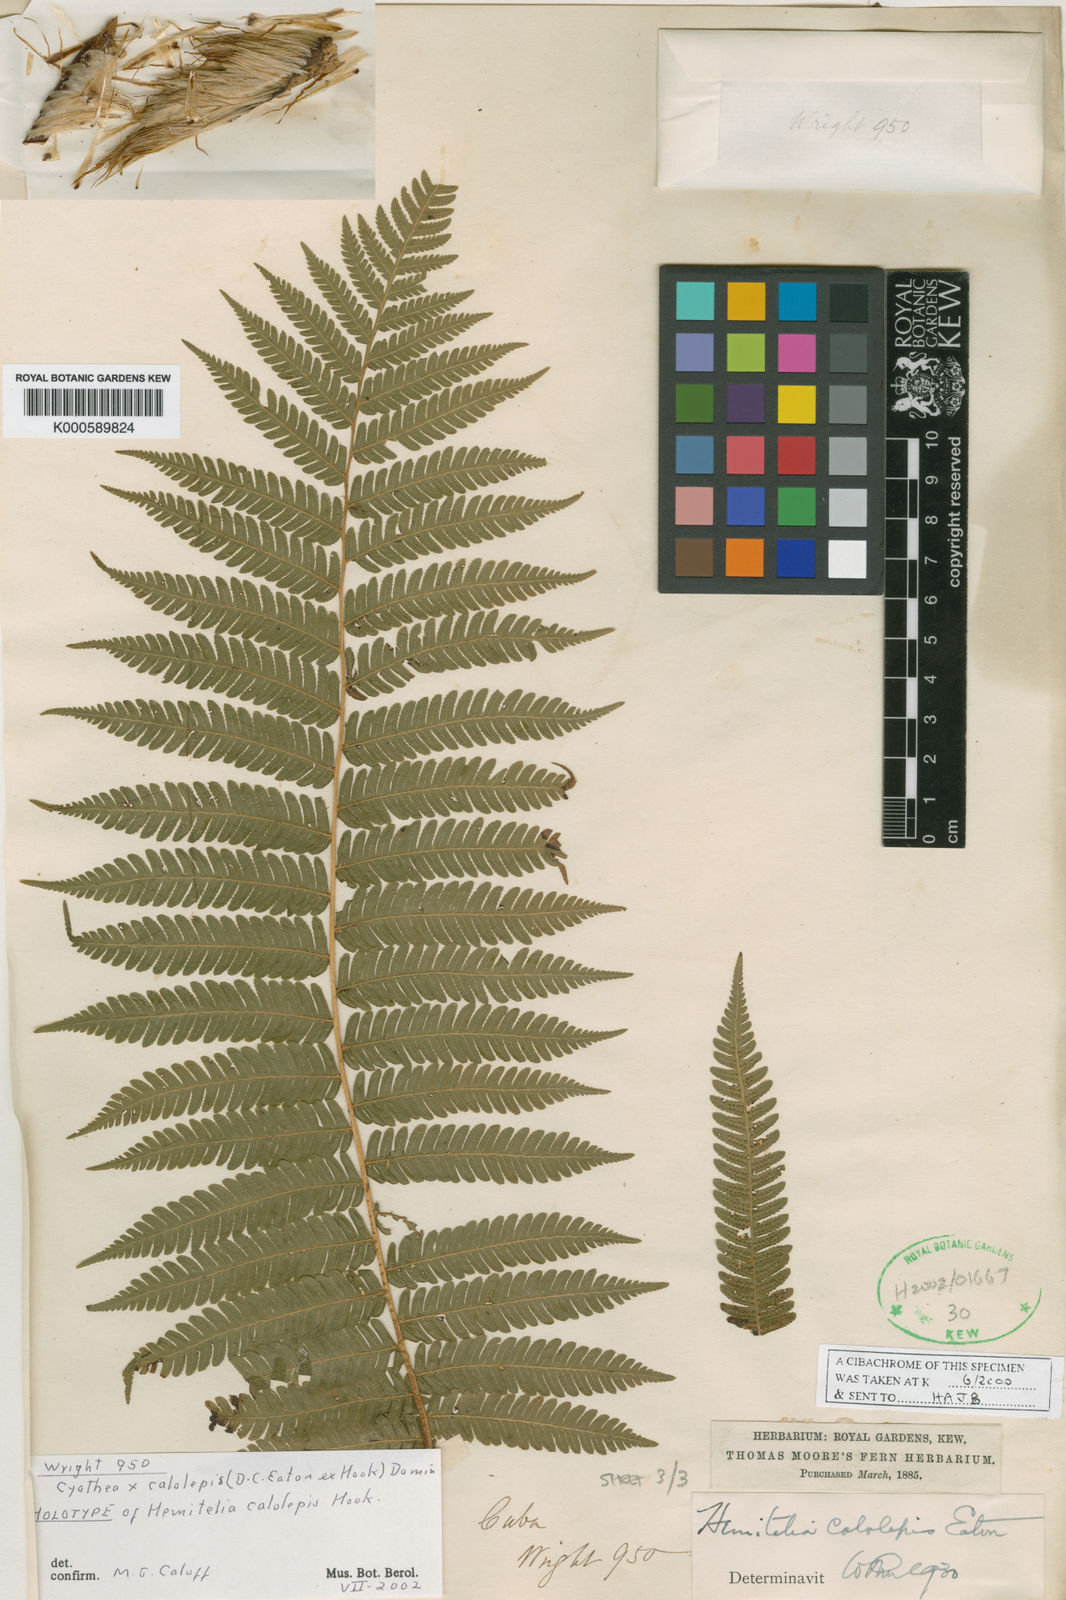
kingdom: Plantae
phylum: Tracheophyta
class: Polypodiopsida
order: Cyatheales
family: Cyatheaceae
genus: Cyathea
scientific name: Cyathea calolepis
